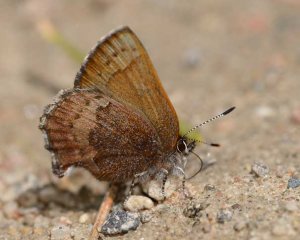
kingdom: Animalia
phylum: Arthropoda
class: Insecta
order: Lepidoptera
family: Lycaenidae
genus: Incisalia
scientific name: Incisalia irioides
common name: Brown Elfin
